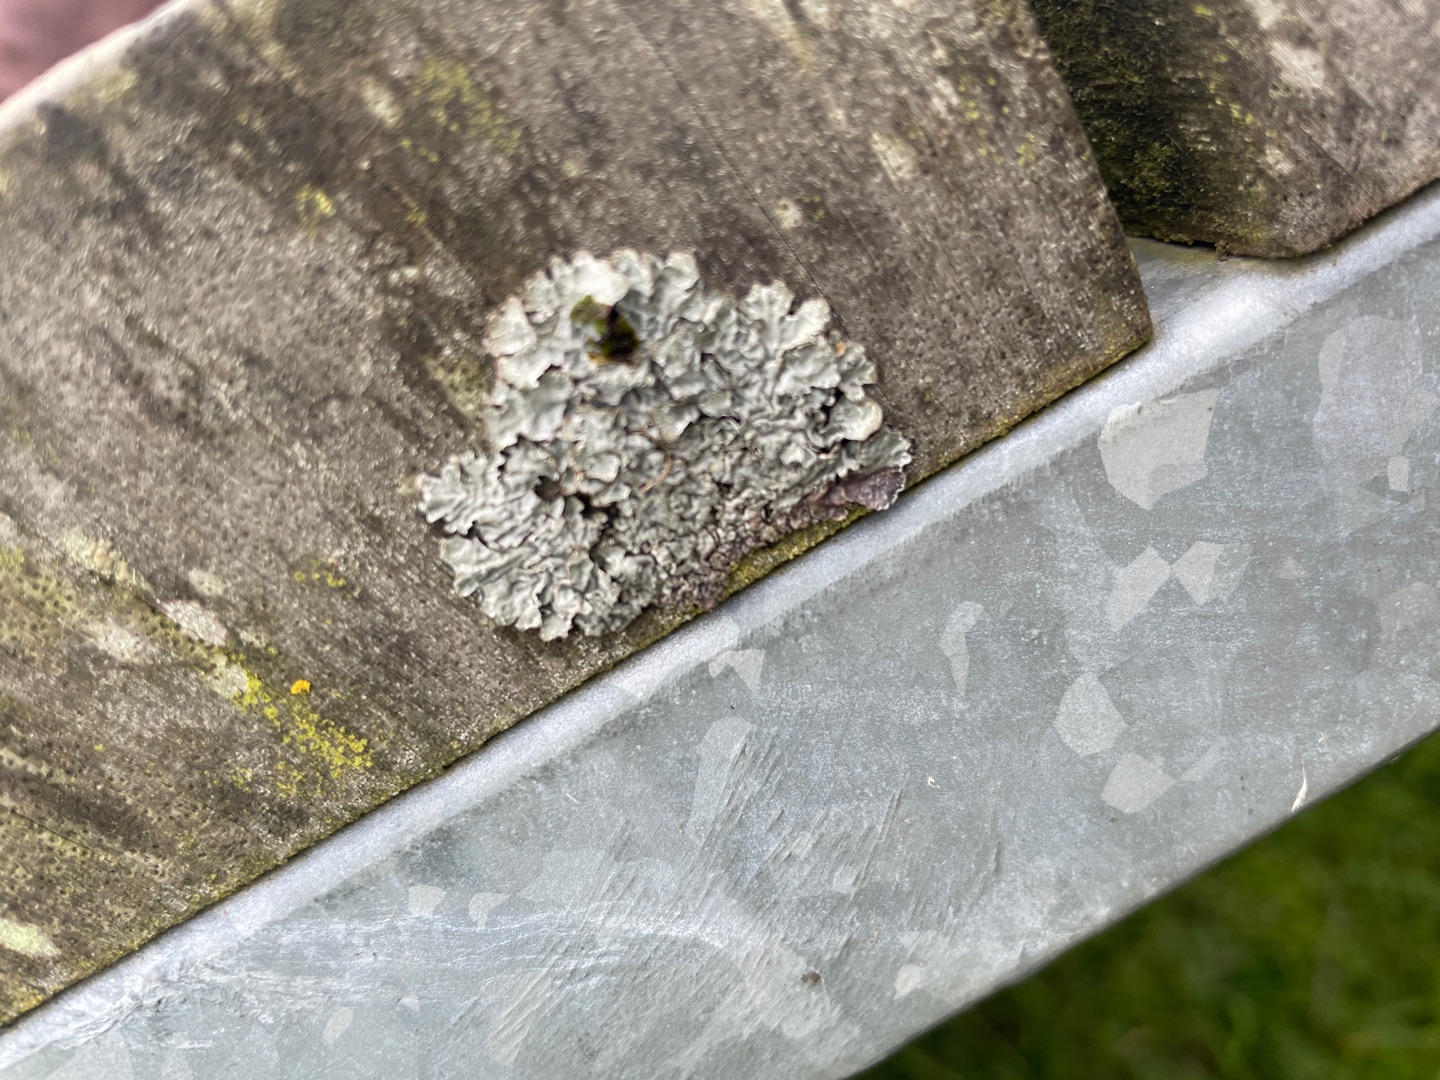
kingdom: Fungi
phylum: Ascomycota
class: Lecanoromycetes
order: Lecanorales
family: Parmeliaceae
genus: Parmelia
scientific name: Parmelia sulcata
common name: Rynket skållav
